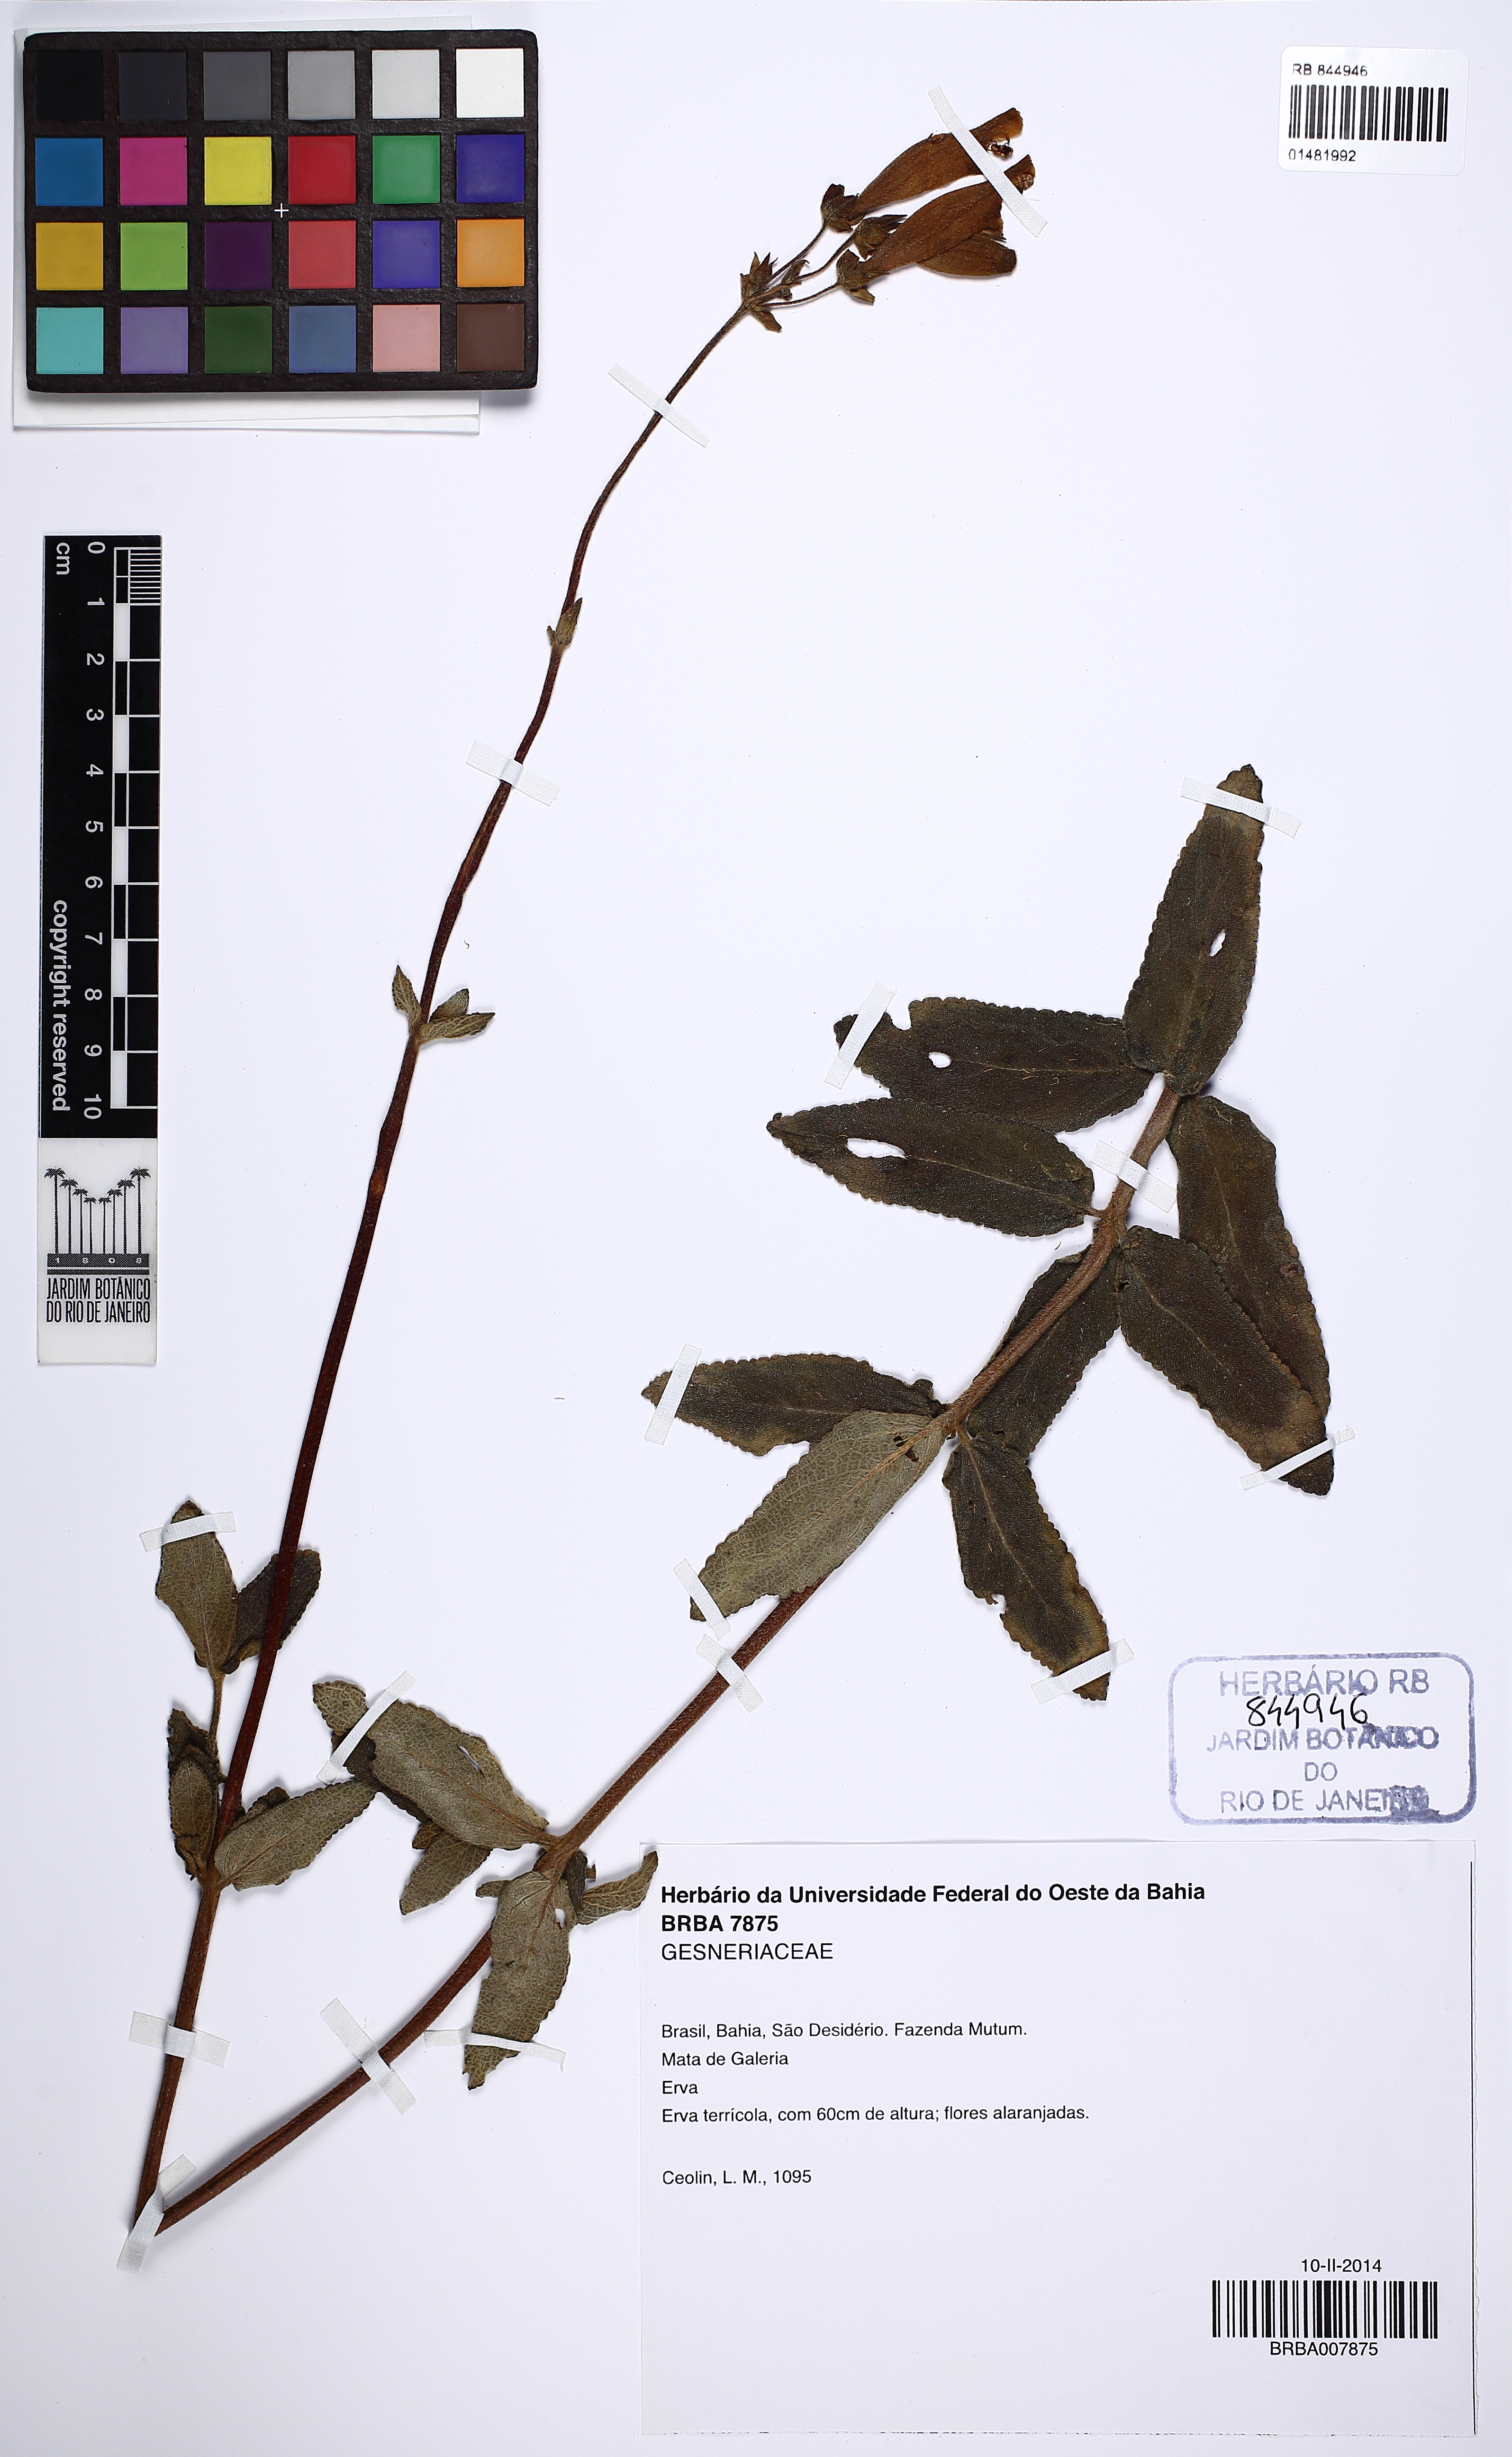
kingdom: Plantae
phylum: Tracheophyta
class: Magnoliopsida
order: Lamiales
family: Gesneriaceae
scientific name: Gesneriaceae
